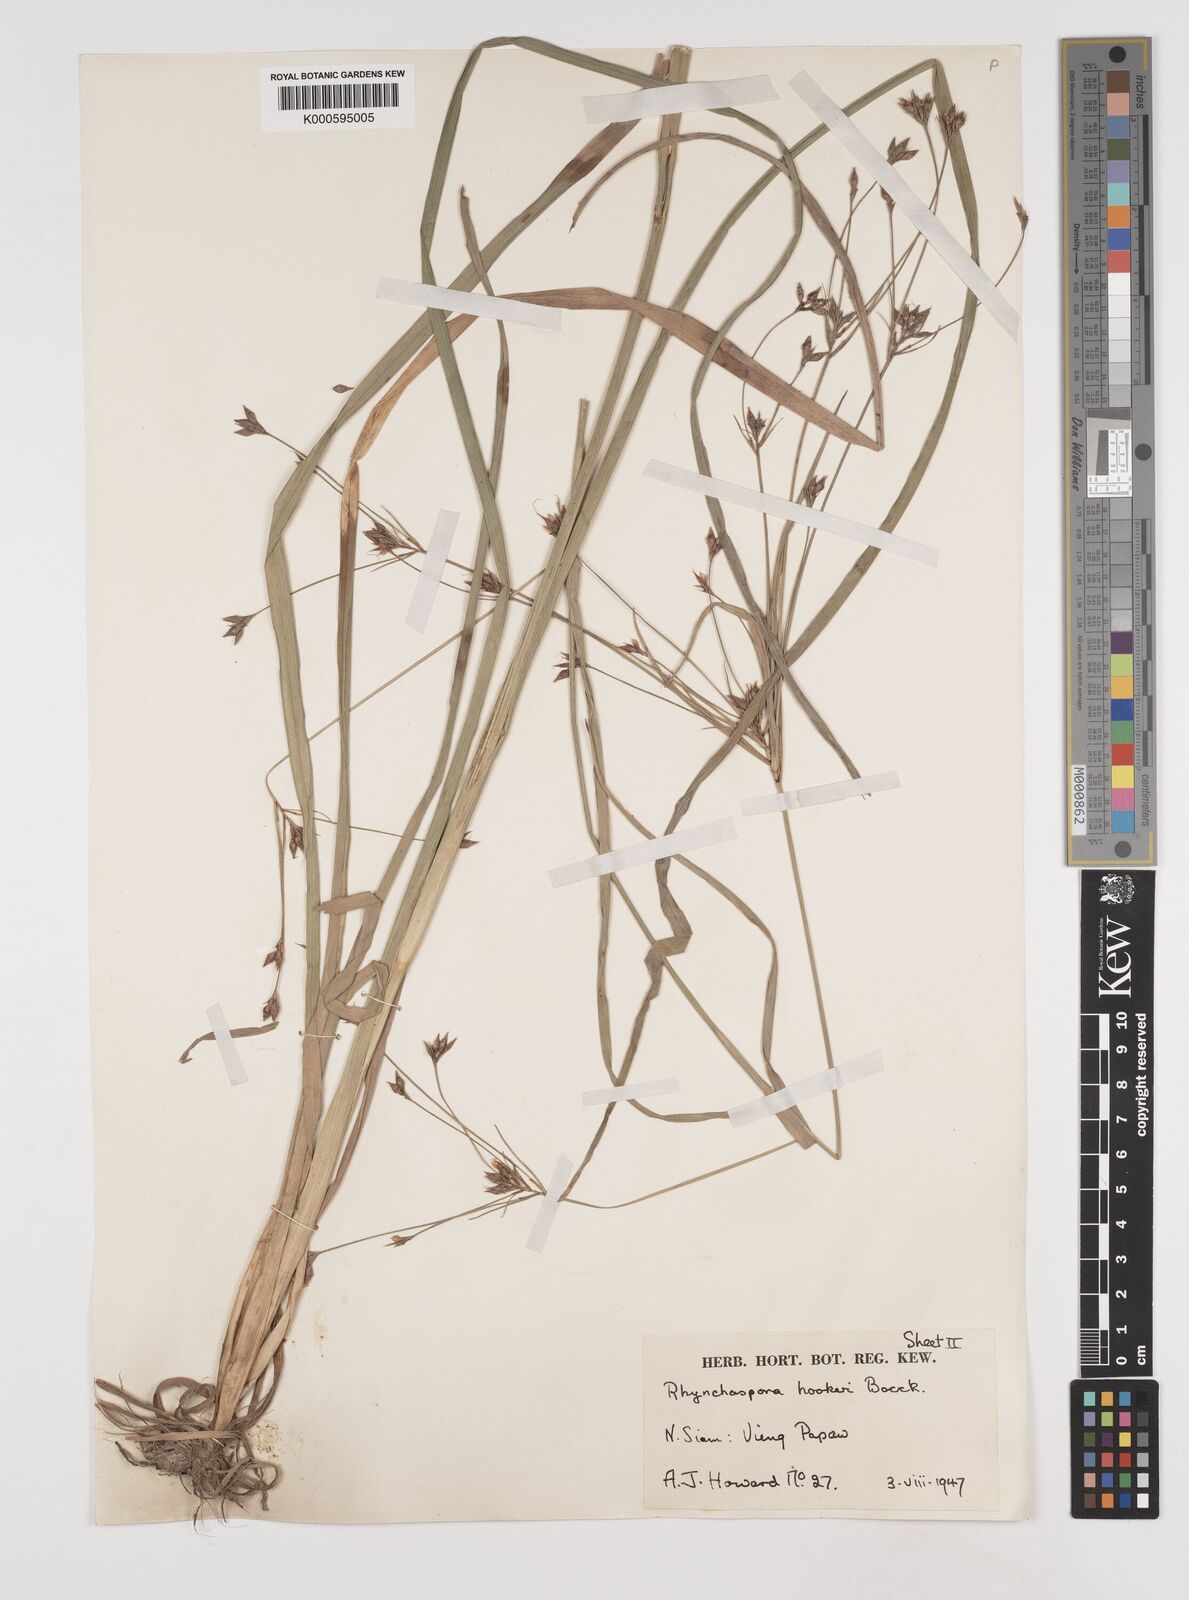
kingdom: Plantae
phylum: Tracheophyta
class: Liliopsida
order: Poales
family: Cyperaceae
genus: Rhynchospora
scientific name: Rhynchospora hookeri
